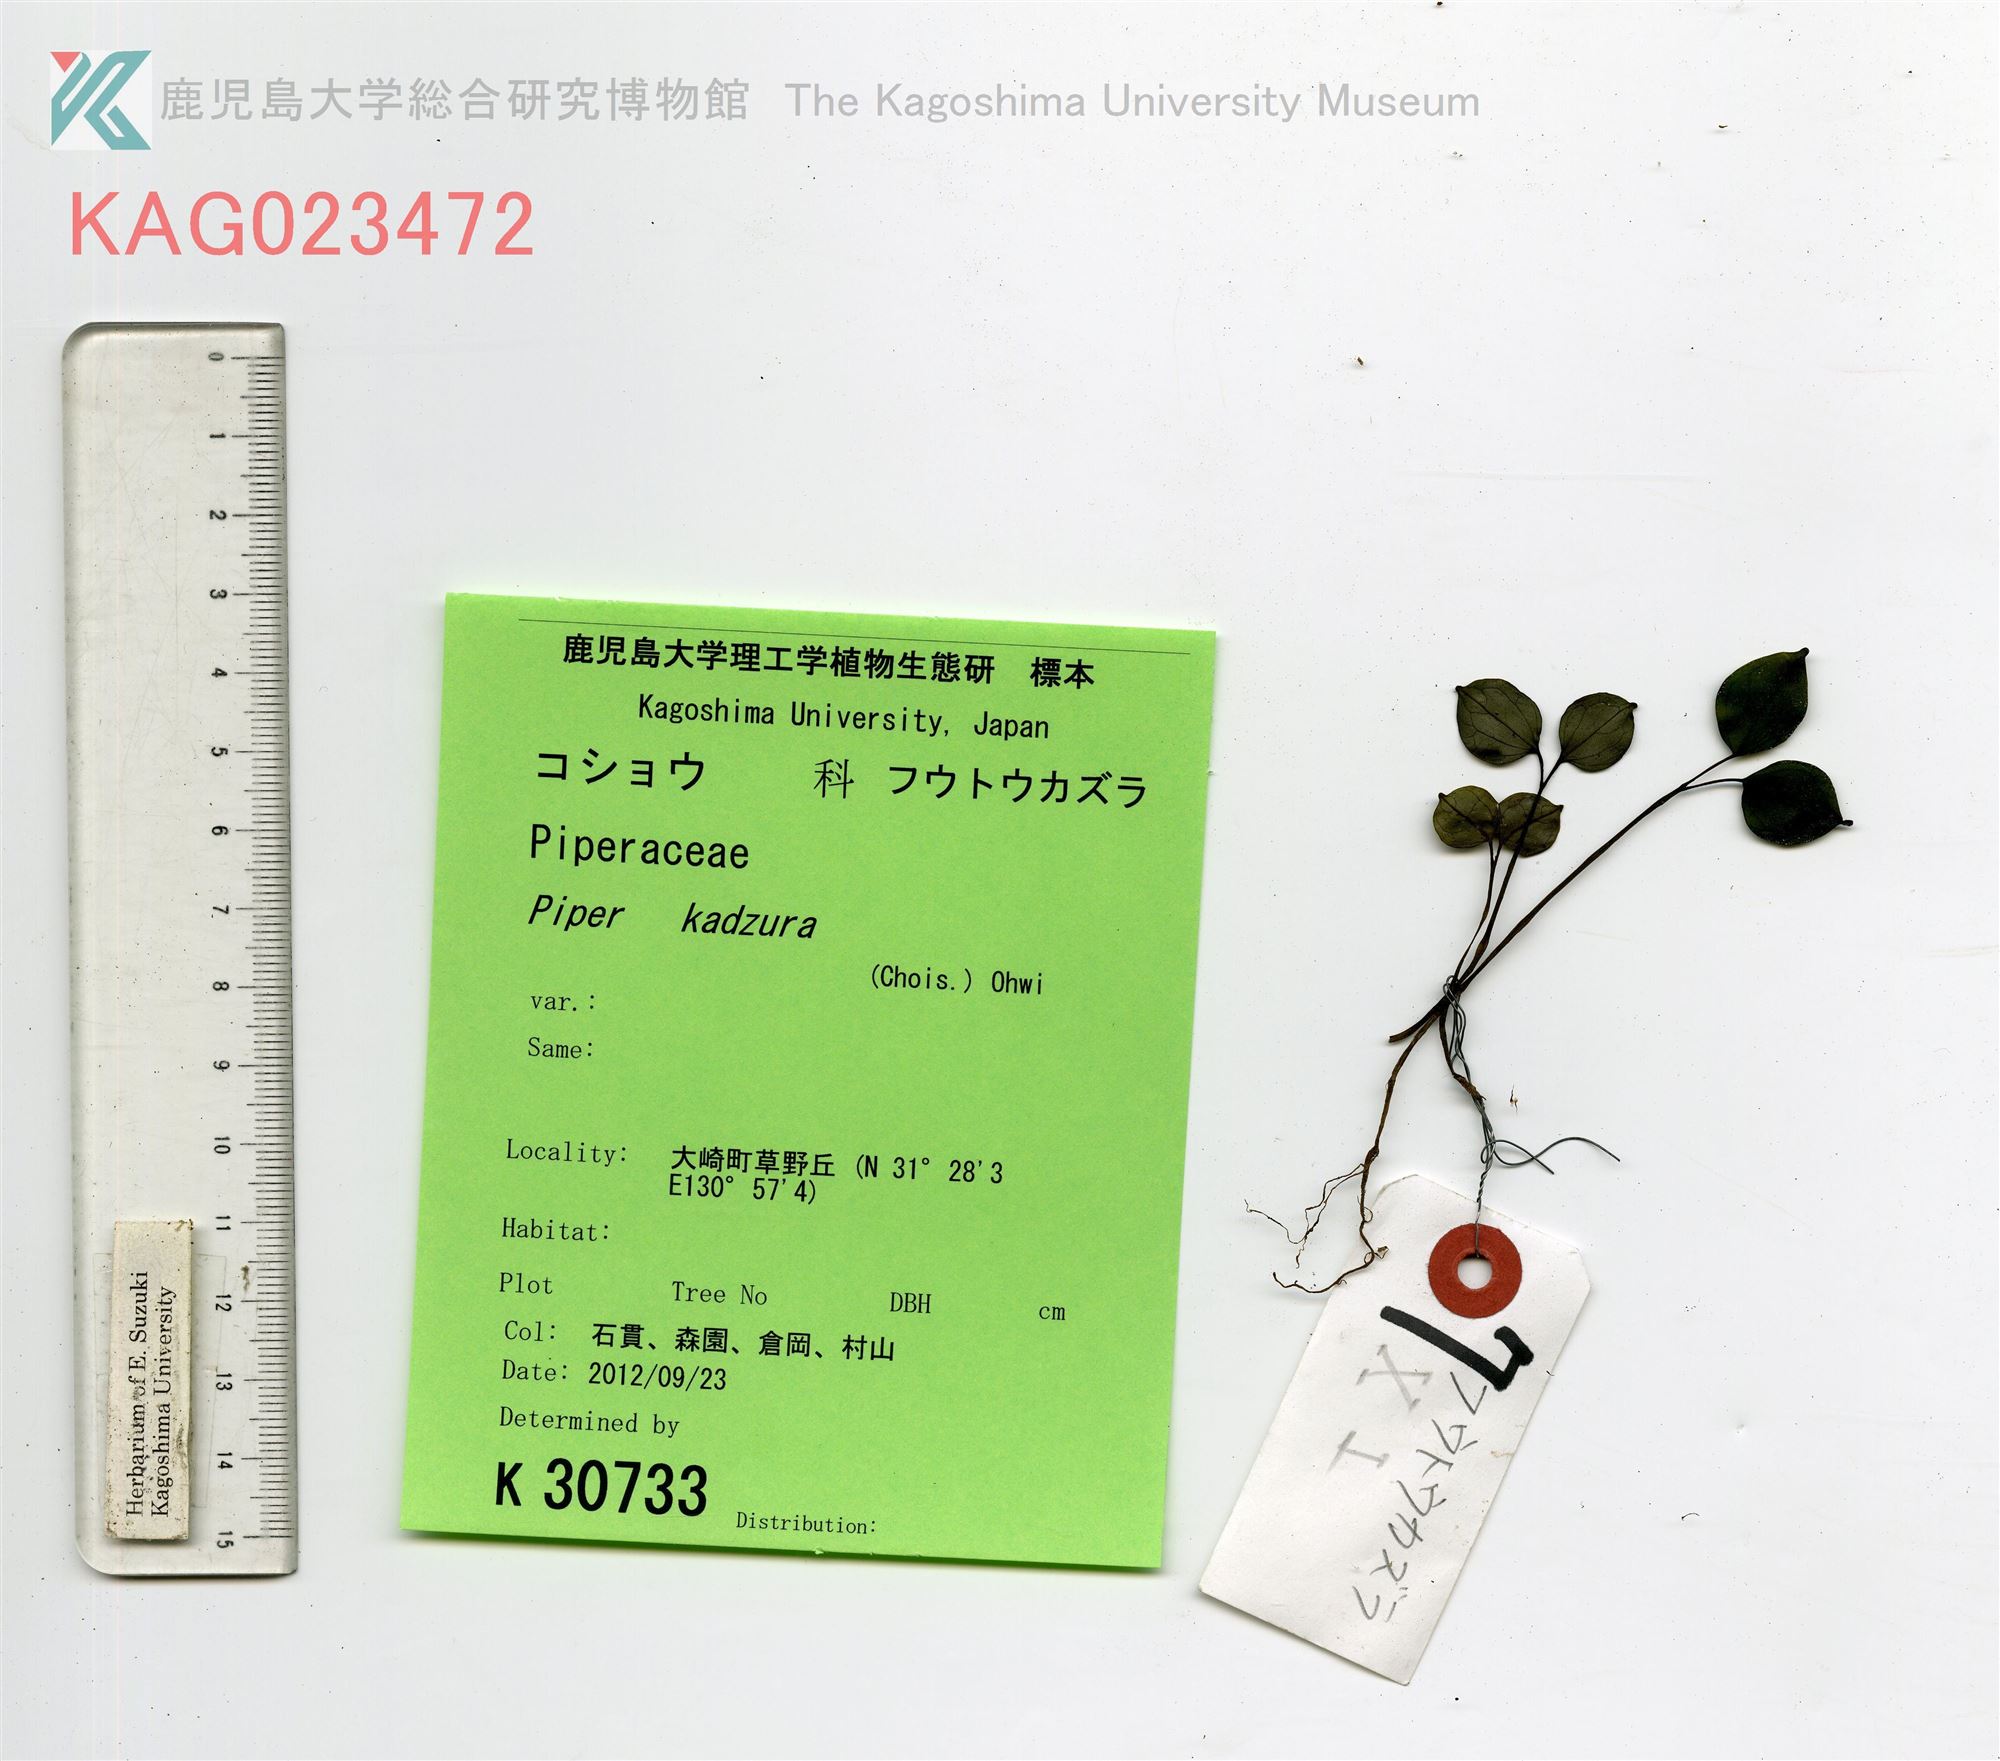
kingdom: Plantae
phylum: Tracheophyta
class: Magnoliopsida
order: Piperales
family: Piperaceae
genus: Piper
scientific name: Piper kadsura
